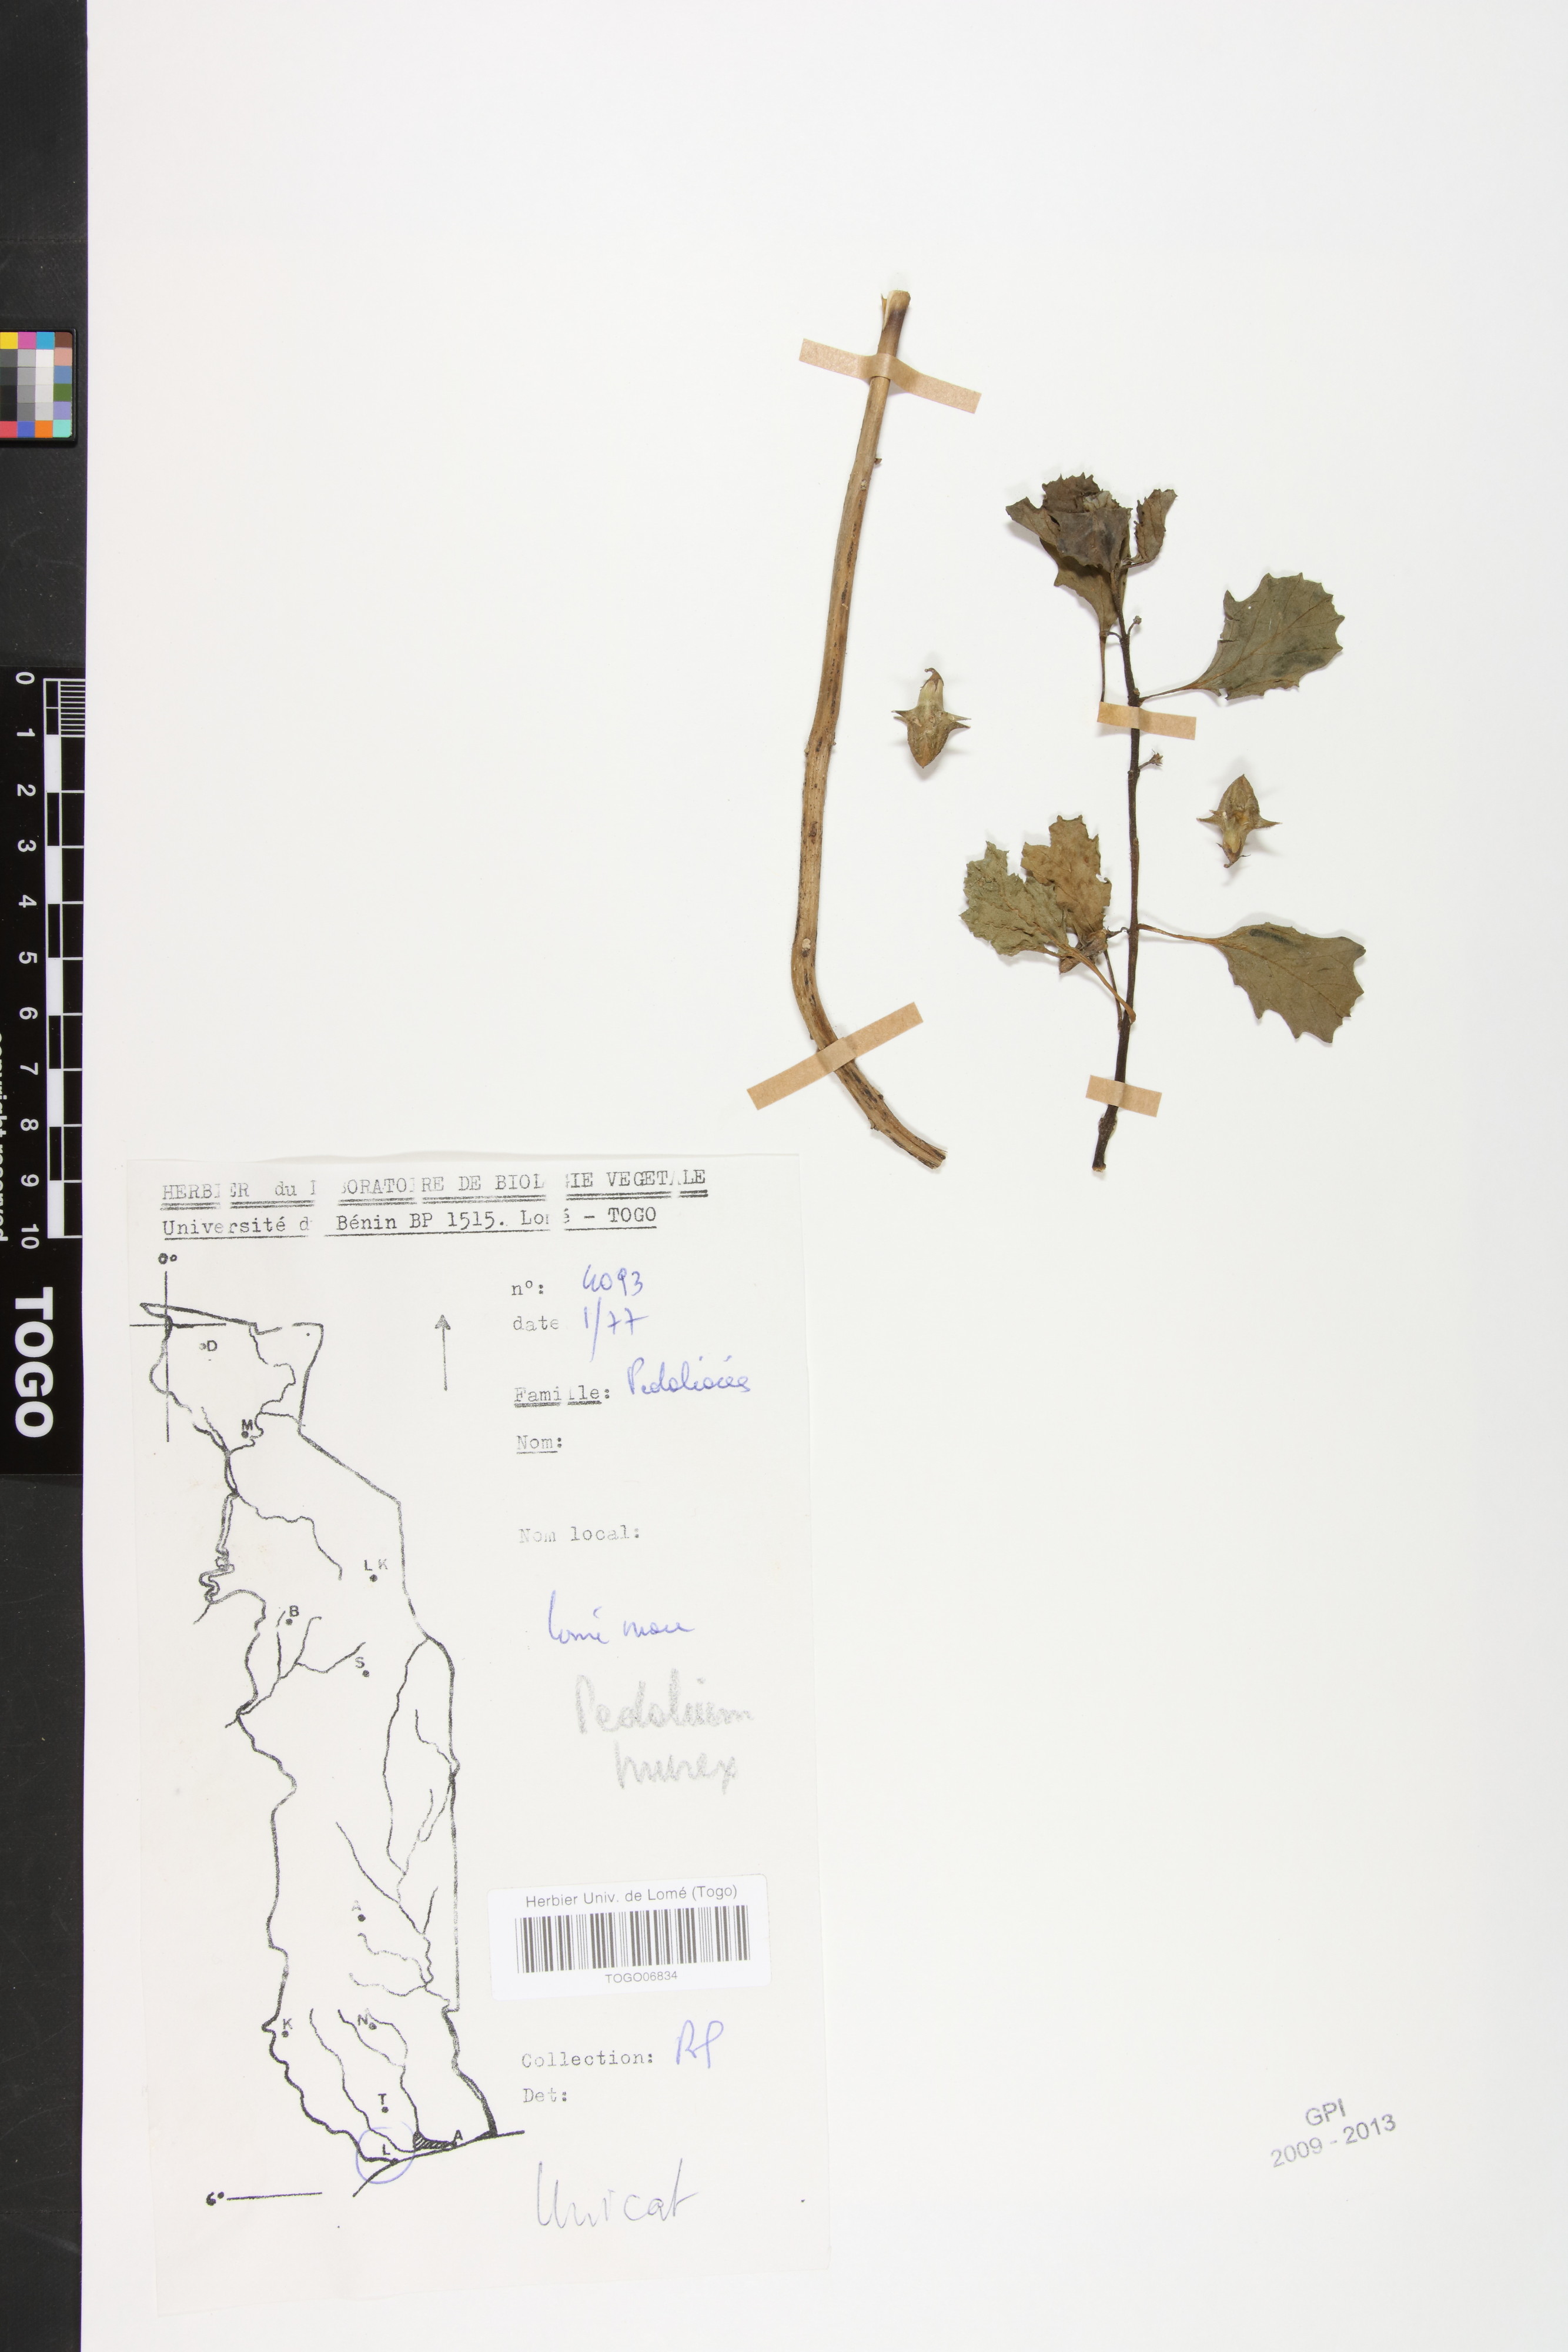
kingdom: Plantae
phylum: Tracheophyta
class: Magnoliopsida
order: Lamiales
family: Pedaliaceae
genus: Pedalium
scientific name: Pedalium murex
